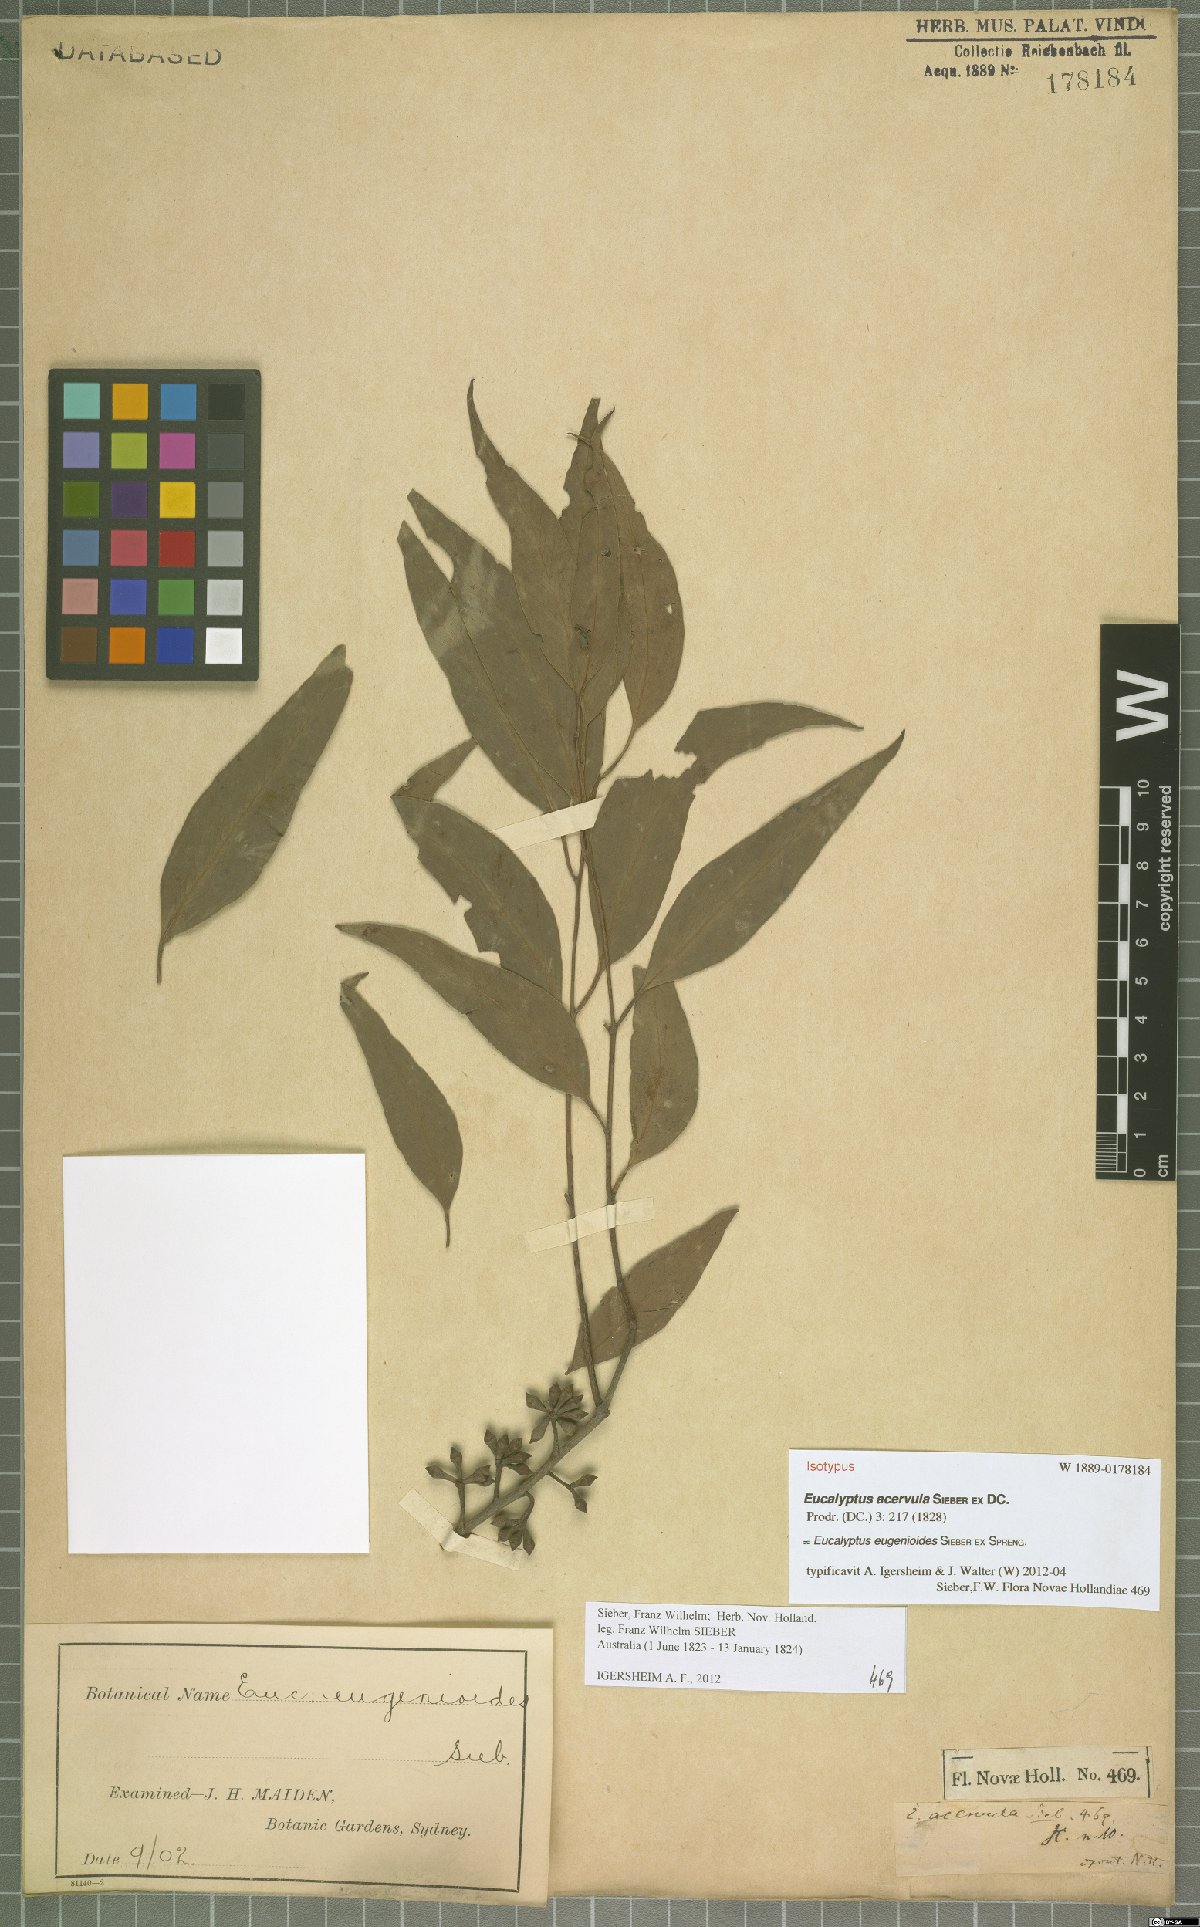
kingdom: Plantae
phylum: Tracheophyta
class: Magnoliopsida
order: Myrtales
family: Myrtaceae
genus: Eucalyptus
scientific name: Eucalyptus eugenioides
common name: Narrow-leaved-stringybark
